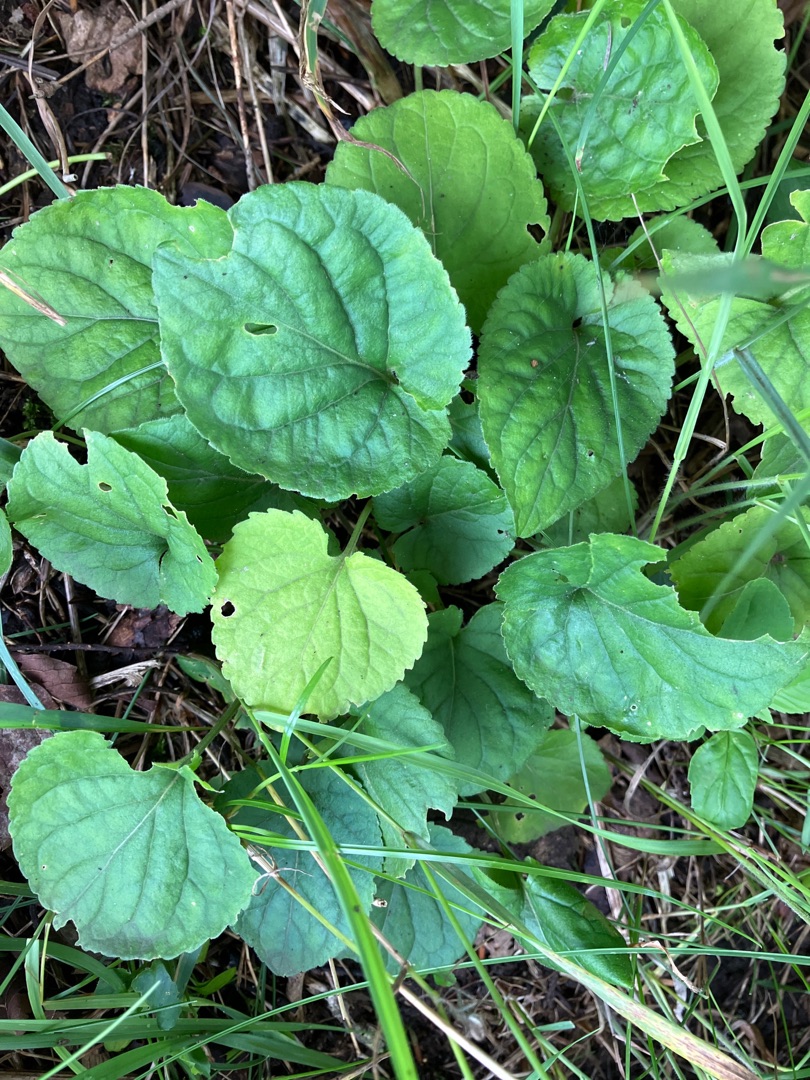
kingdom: Plantae
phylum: Tracheophyta
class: Magnoliopsida
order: Malpighiales
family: Violaceae
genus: Viola
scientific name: Viola odorata
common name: Marts-viol
